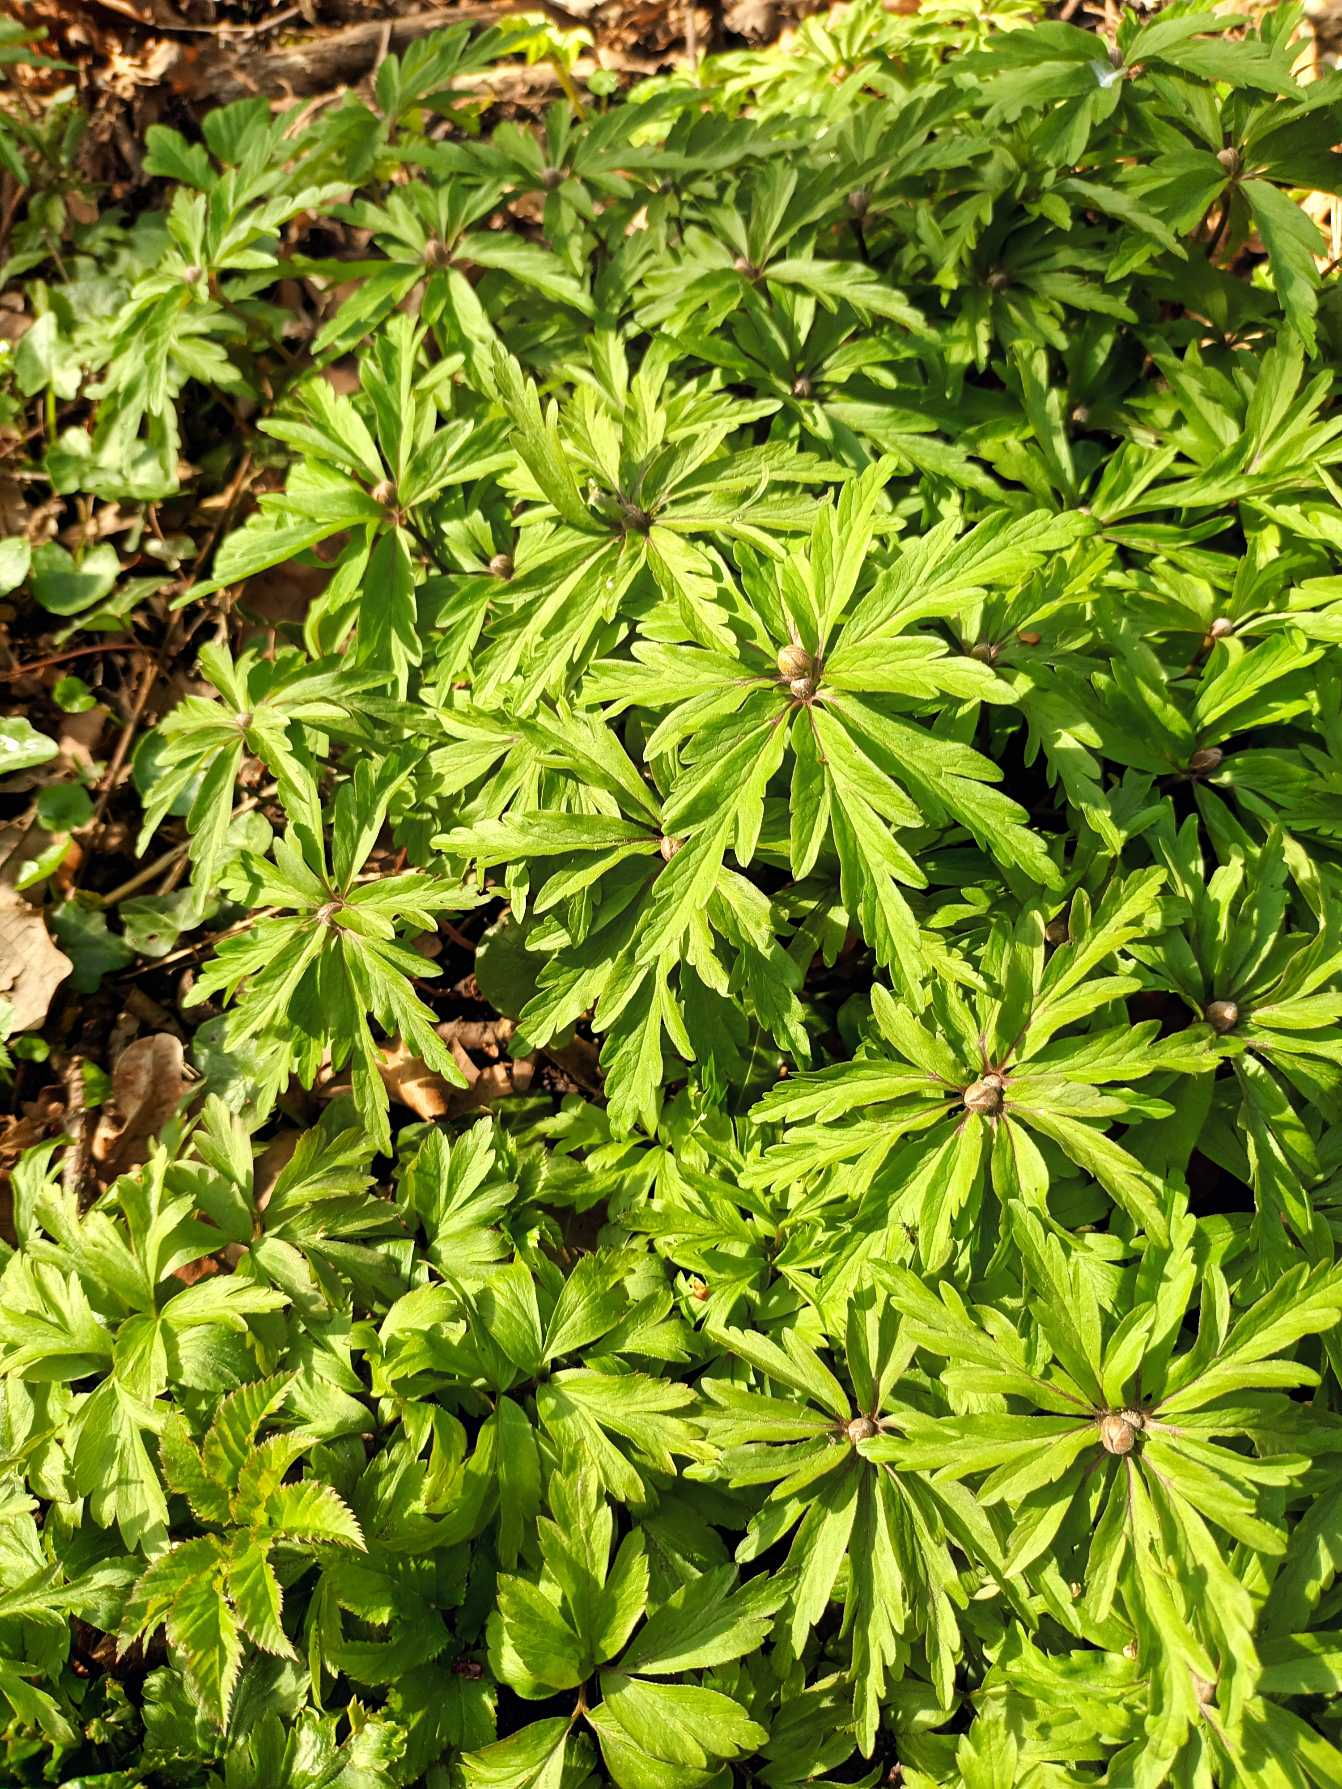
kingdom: Plantae
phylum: Tracheophyta
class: Magnoliopsida
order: Ranunculales
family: Ranunculaceae
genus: Anemone
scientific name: Anemone ranunculoides
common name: Gul anemone
